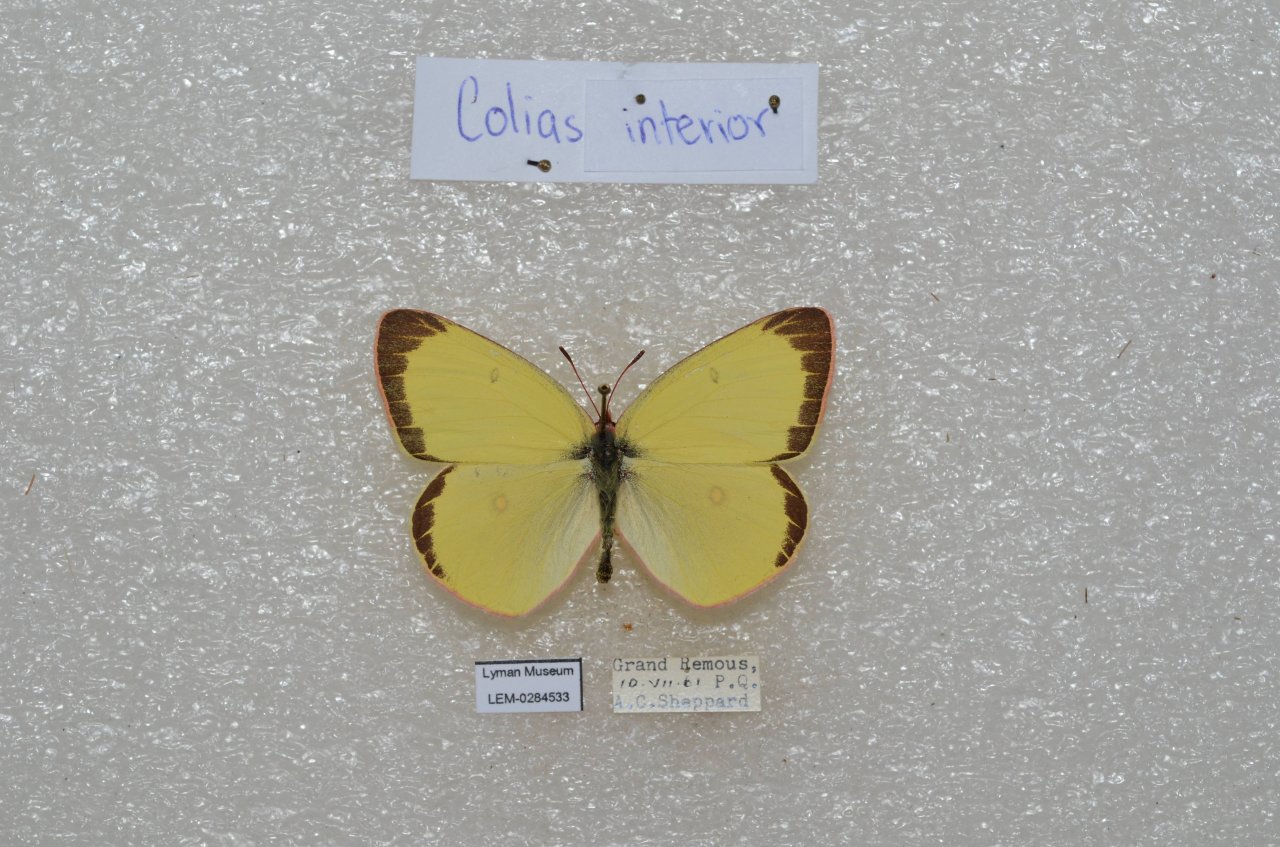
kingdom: Animalia
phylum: Arthropoda
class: Insecta
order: Lepidoptera
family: Pieridae
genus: Colias
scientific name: Colias interior
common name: Pink-edged Sulphur
